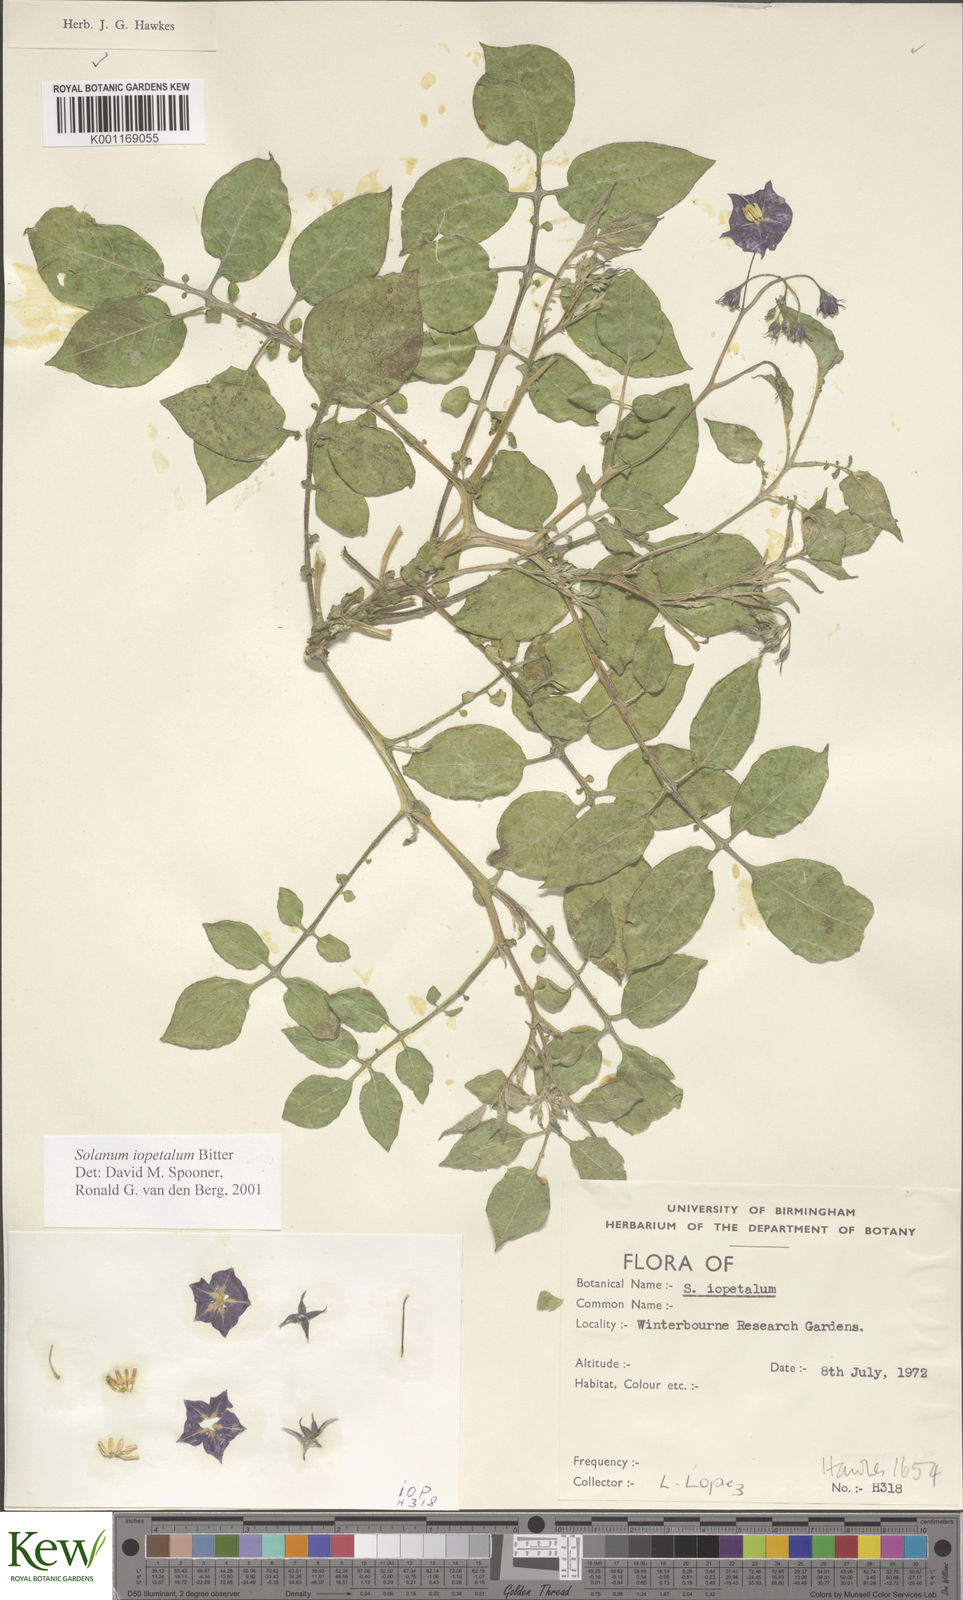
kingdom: Plantae
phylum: Tracheophyta
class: Magnoliopsida
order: Solanales
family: Solanaceae
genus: Solanum
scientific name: Solanum iopetalum
